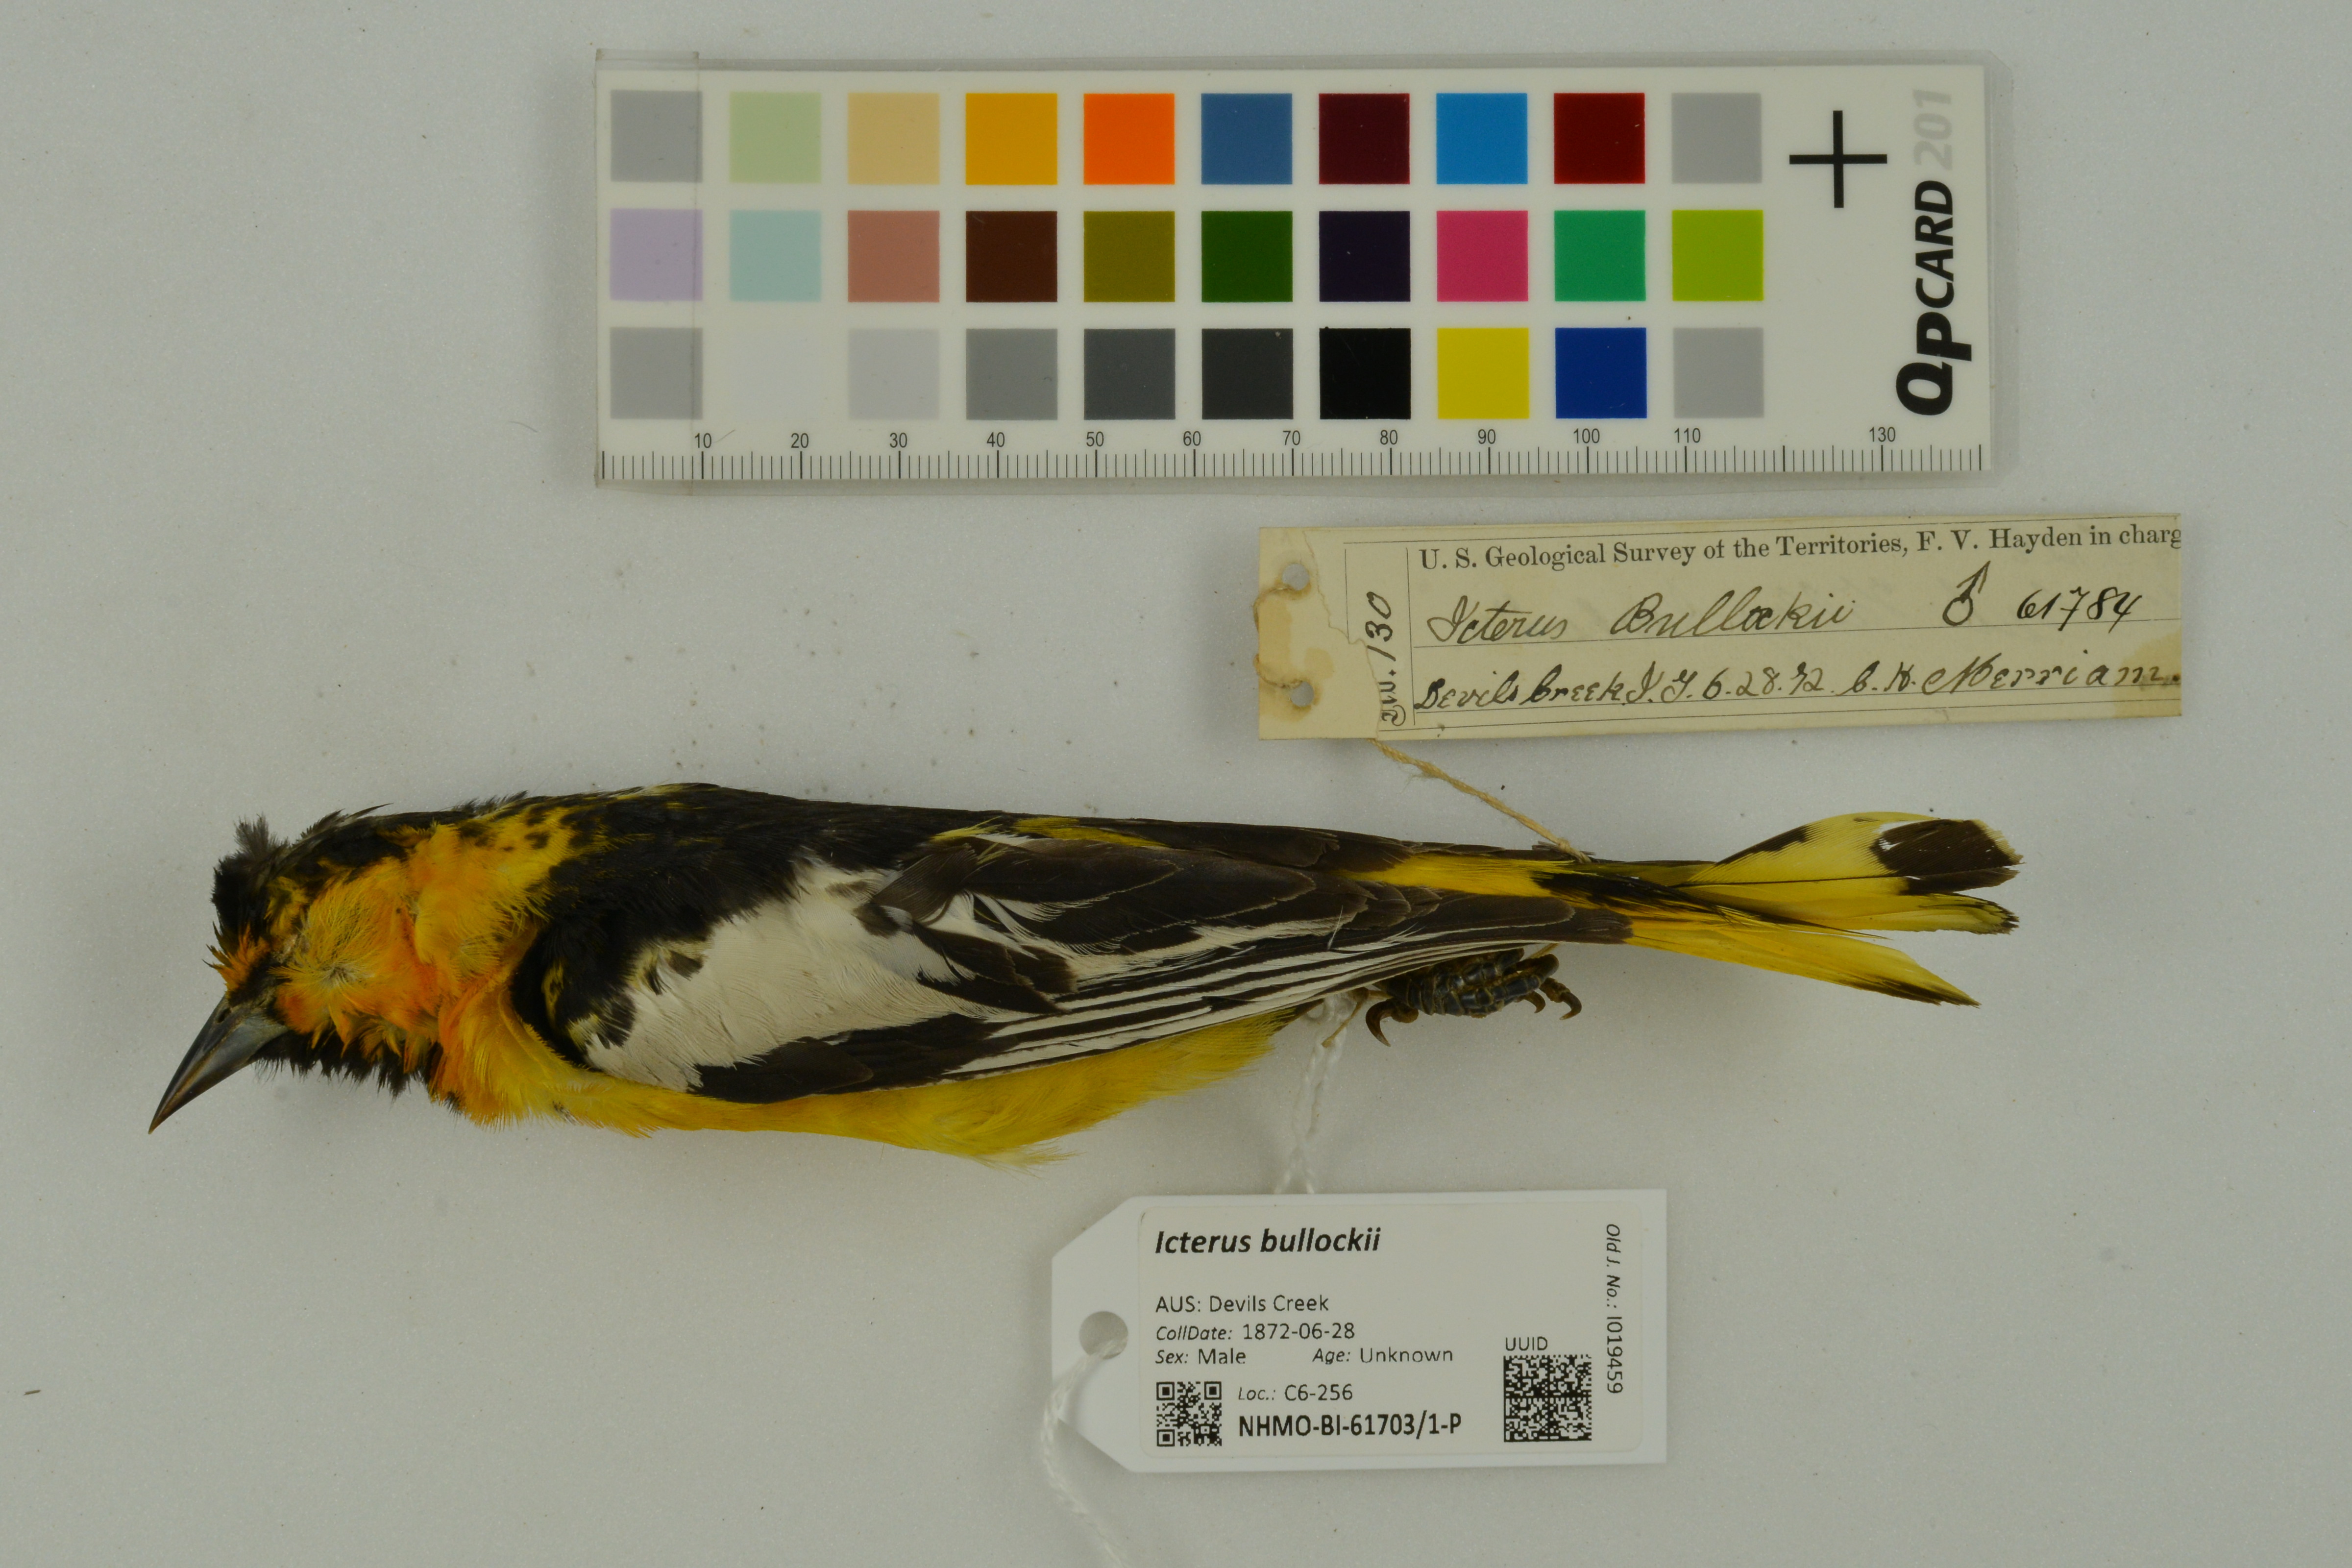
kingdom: Animalia
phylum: Chordata
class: Aves
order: Passeriformes
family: Icteridae
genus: Icterus
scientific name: Icterus bullockii
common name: Bullock's oriole
